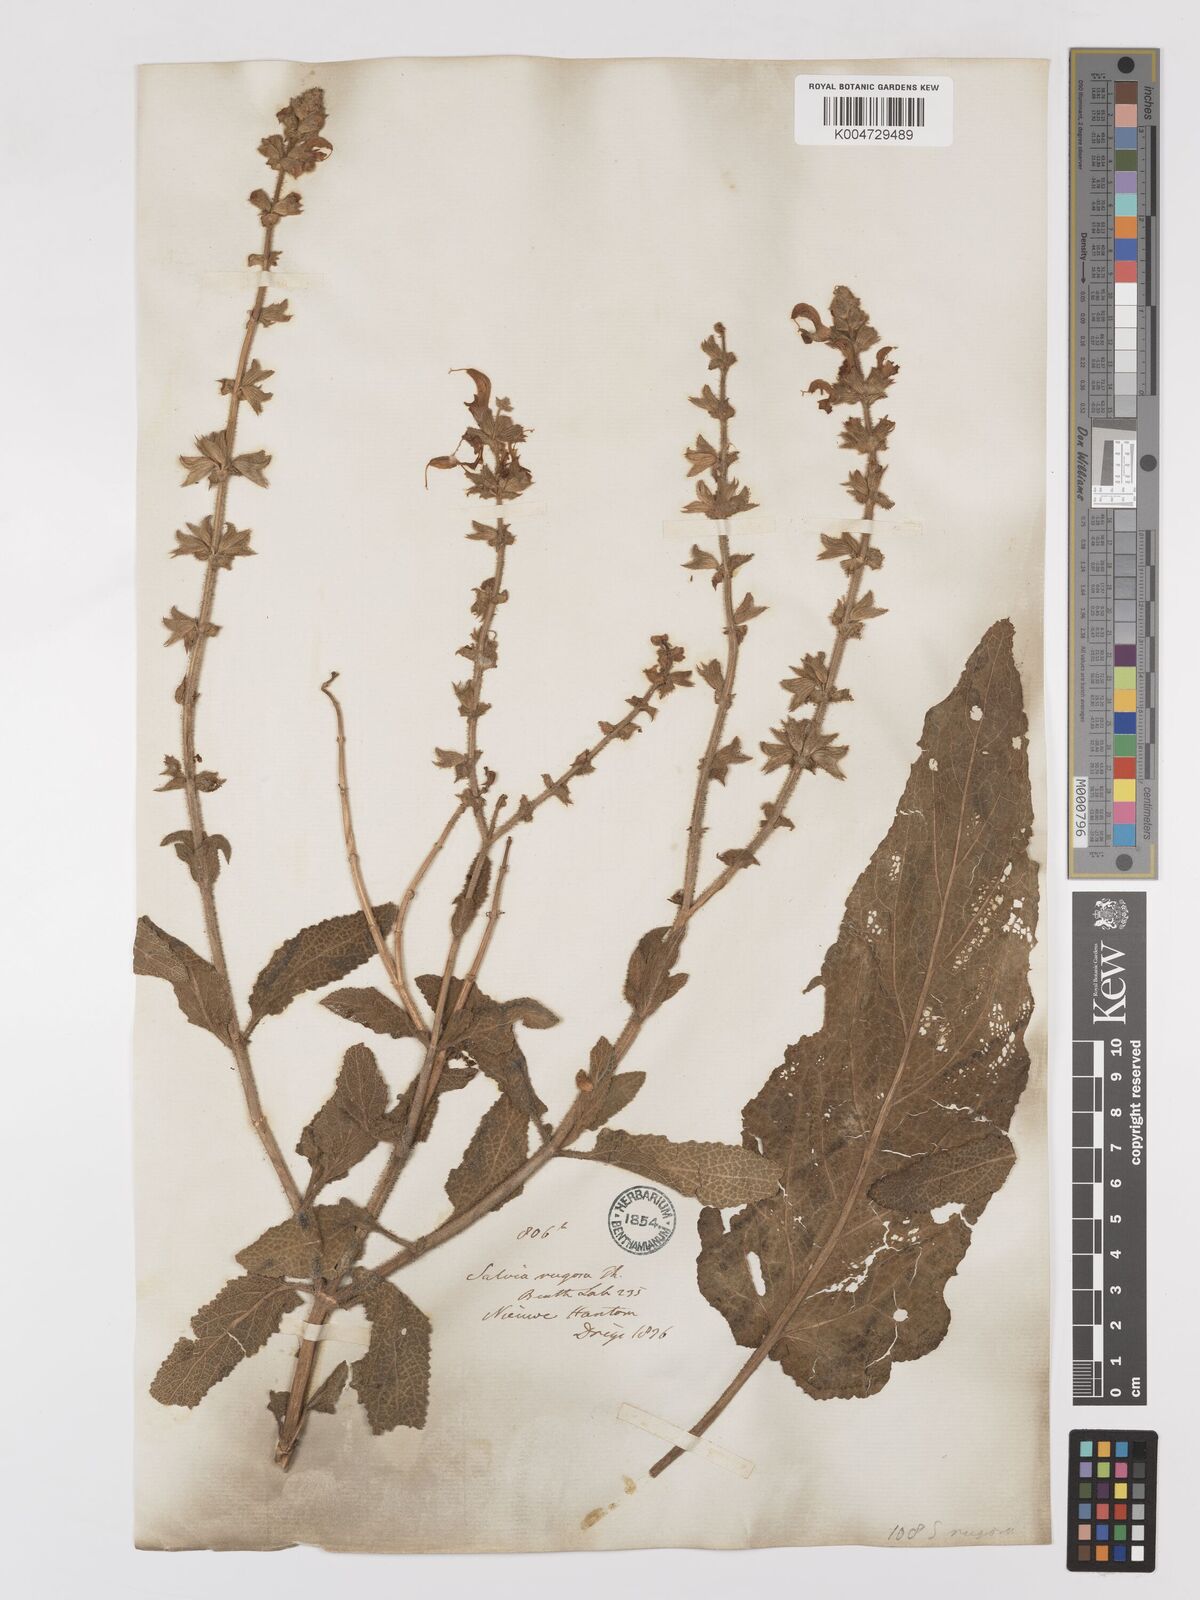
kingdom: Plantae
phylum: Tracheophyta
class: Magnoliopsida
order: Lamiales
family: Lamiaceae
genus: Salvia
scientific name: Salvia
